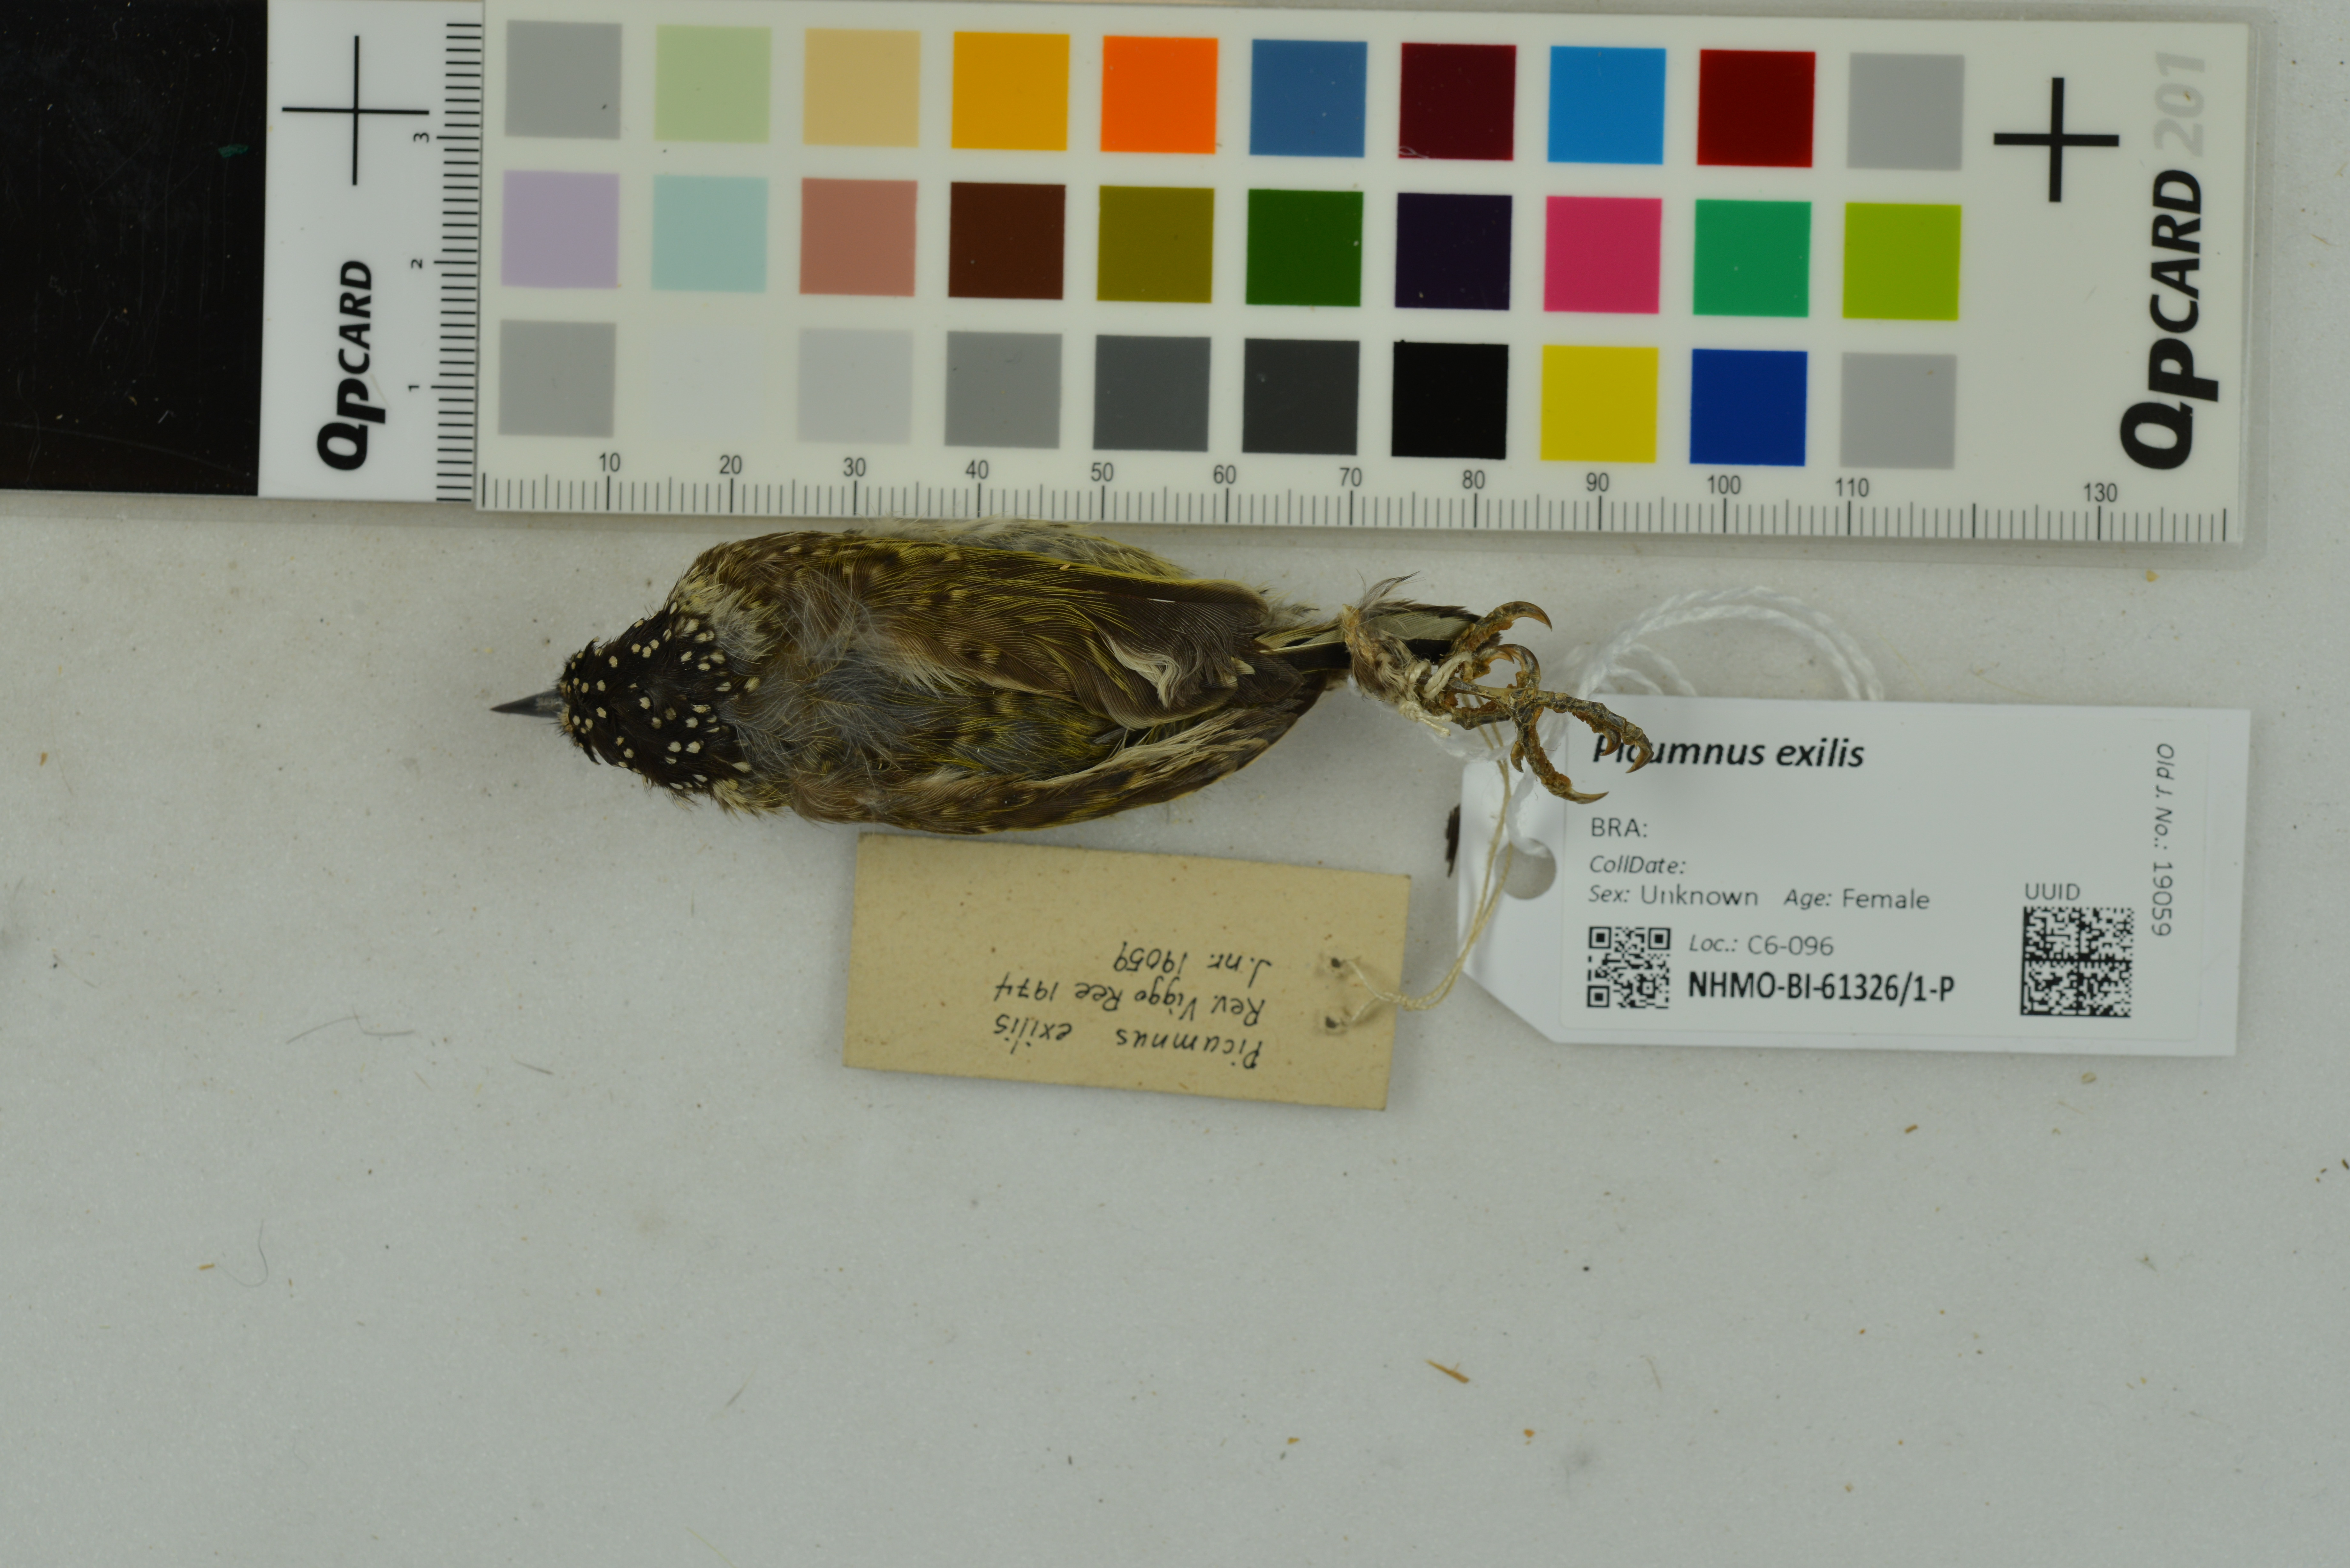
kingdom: Animalia
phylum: Chordata
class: Aves
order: Piciformes
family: Picidae
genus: Picumnus
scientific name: Picumnus exilis
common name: Golden-spangled piculet
